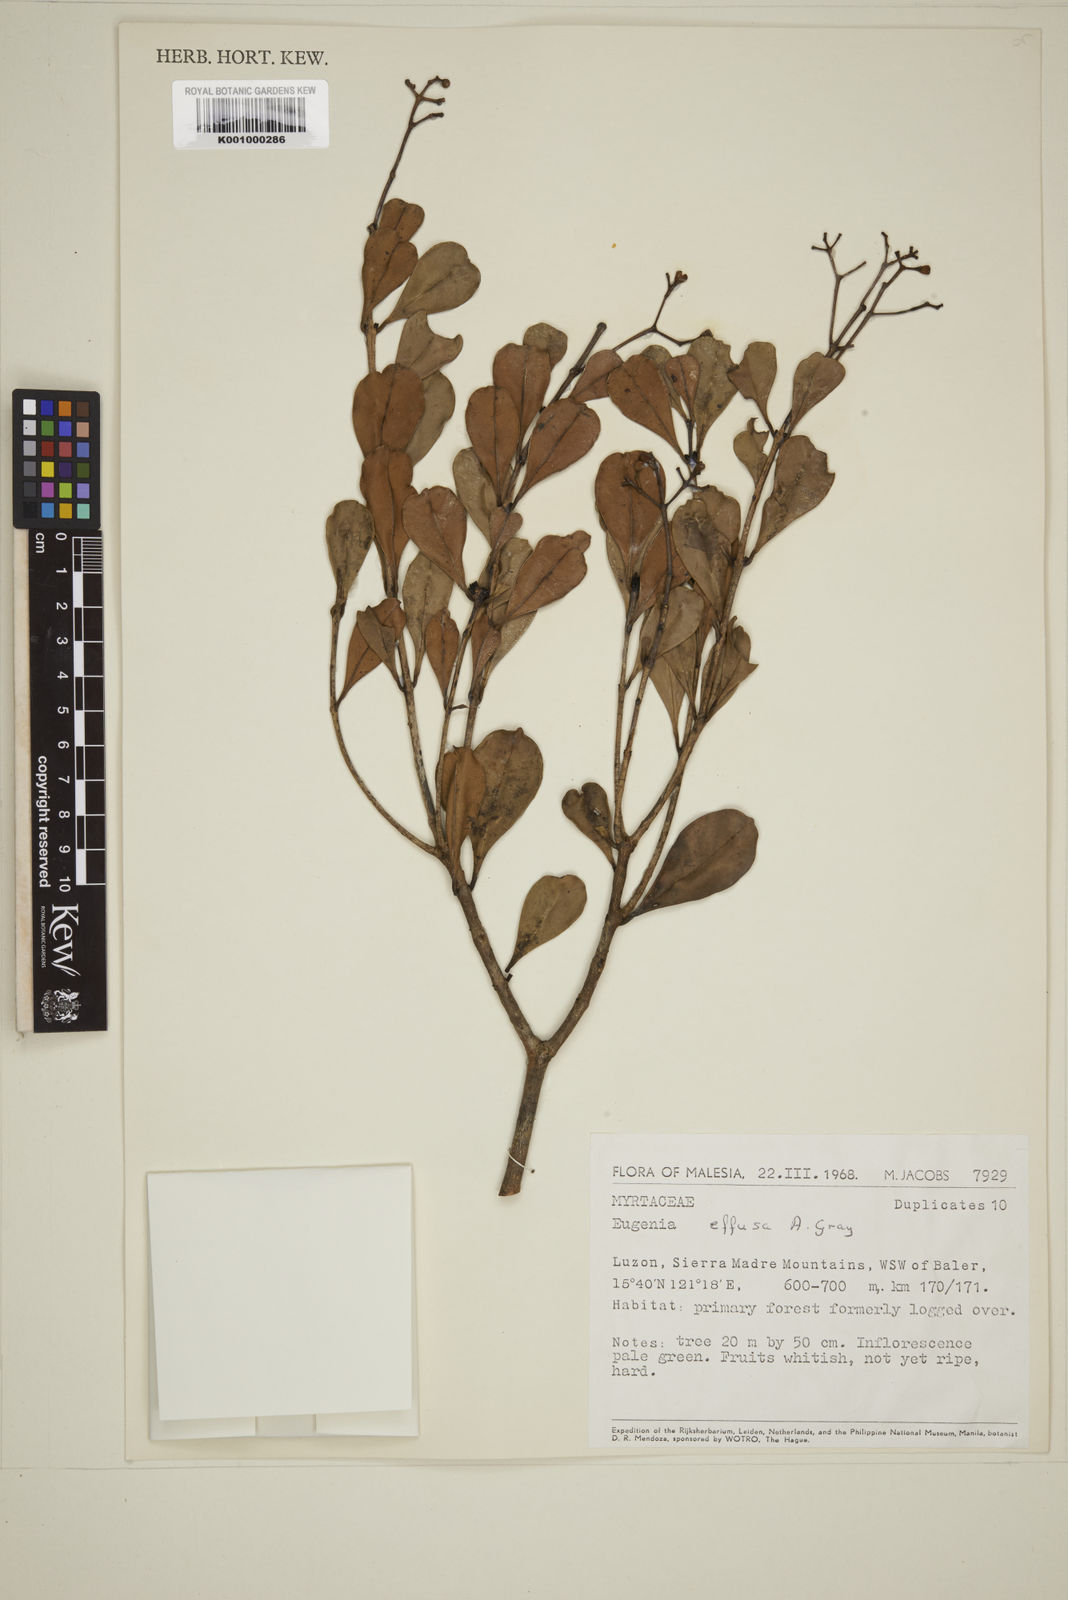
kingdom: Plantae
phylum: Tracheophyta
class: Magnoliopsida
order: Myrtales
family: Myrtaceae
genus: Syzygium
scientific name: Syzygium effusum
